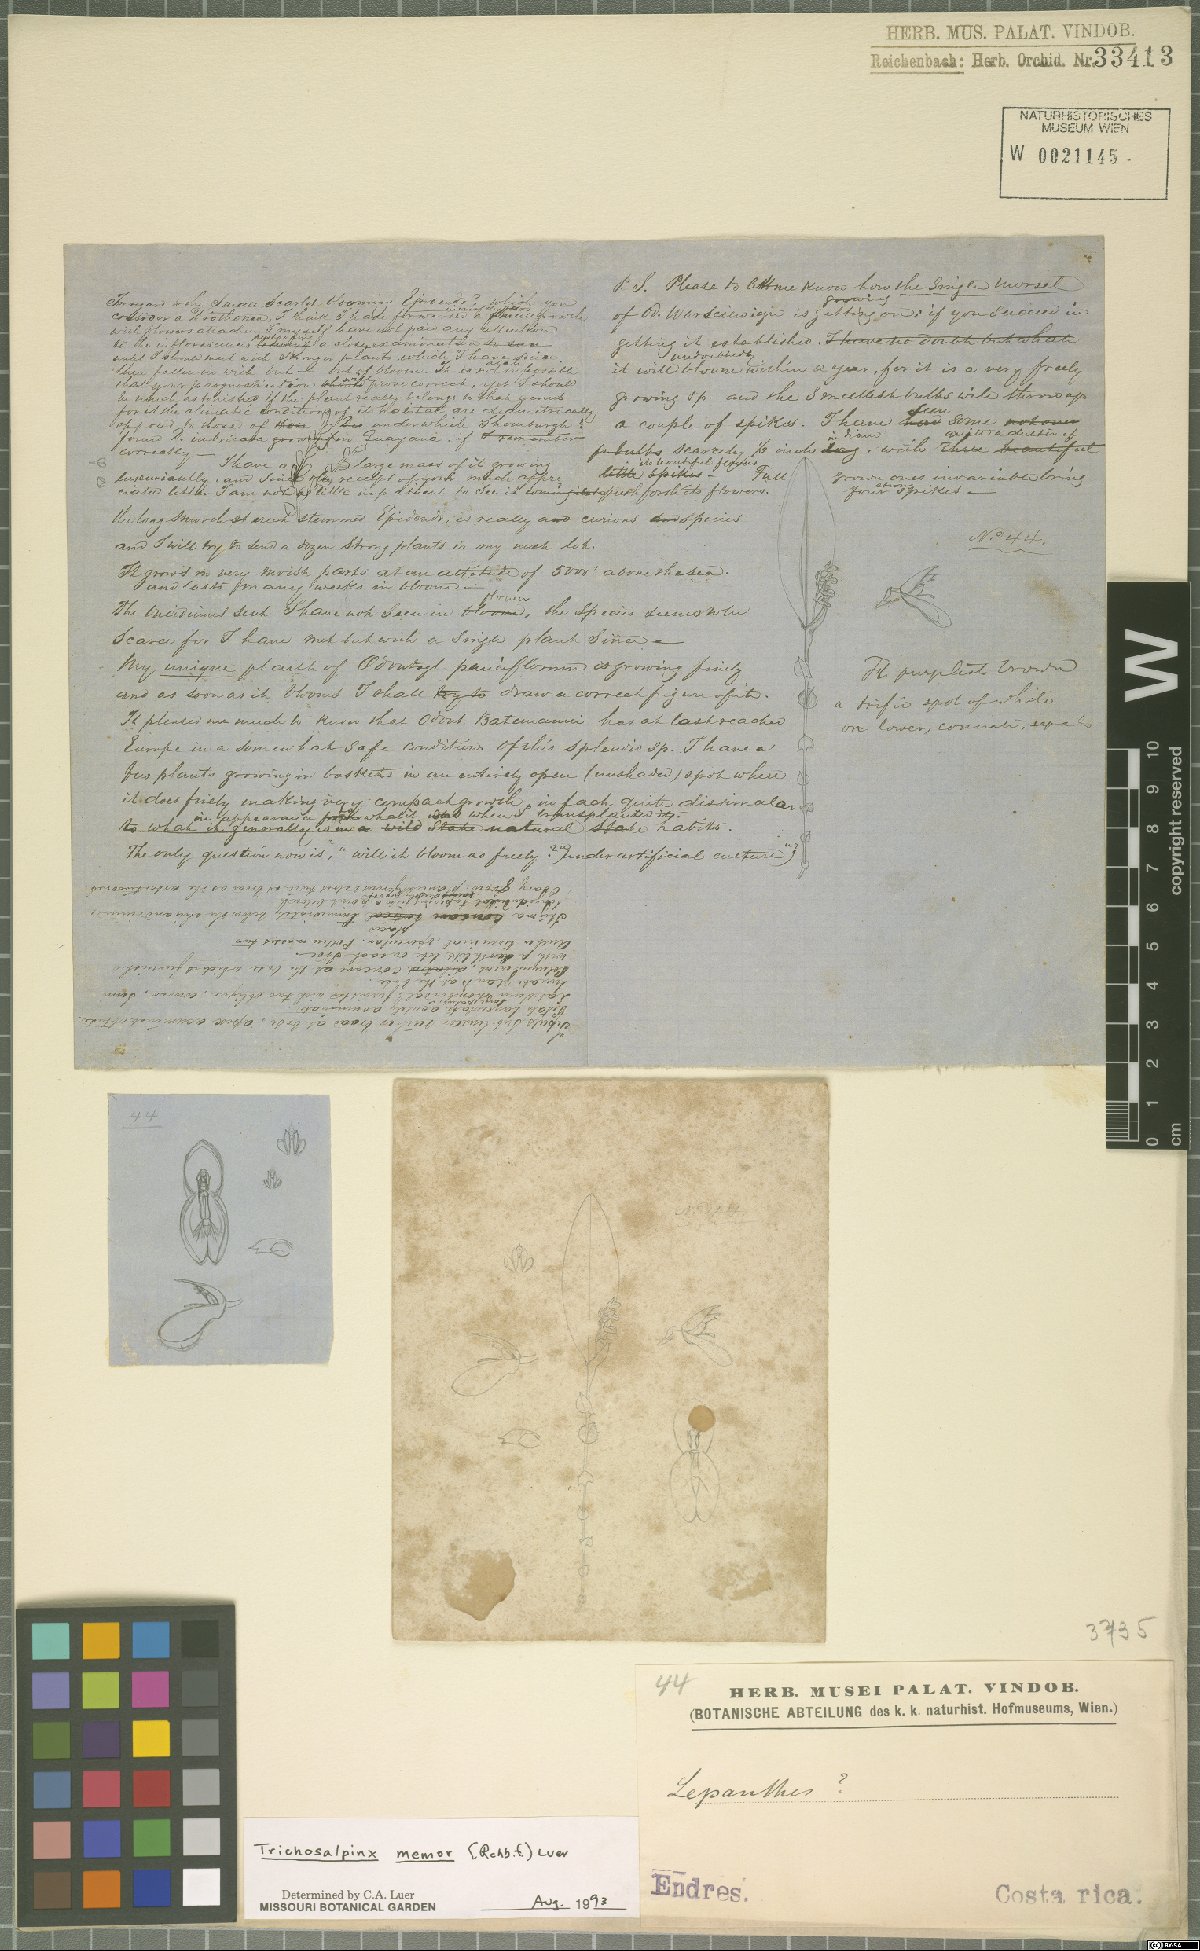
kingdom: Plantae
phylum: Tracheophyta
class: Liliopsida
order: Asparagales
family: Orchidaceae
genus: Trichosalpinx
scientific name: Trichosalpinx memor
